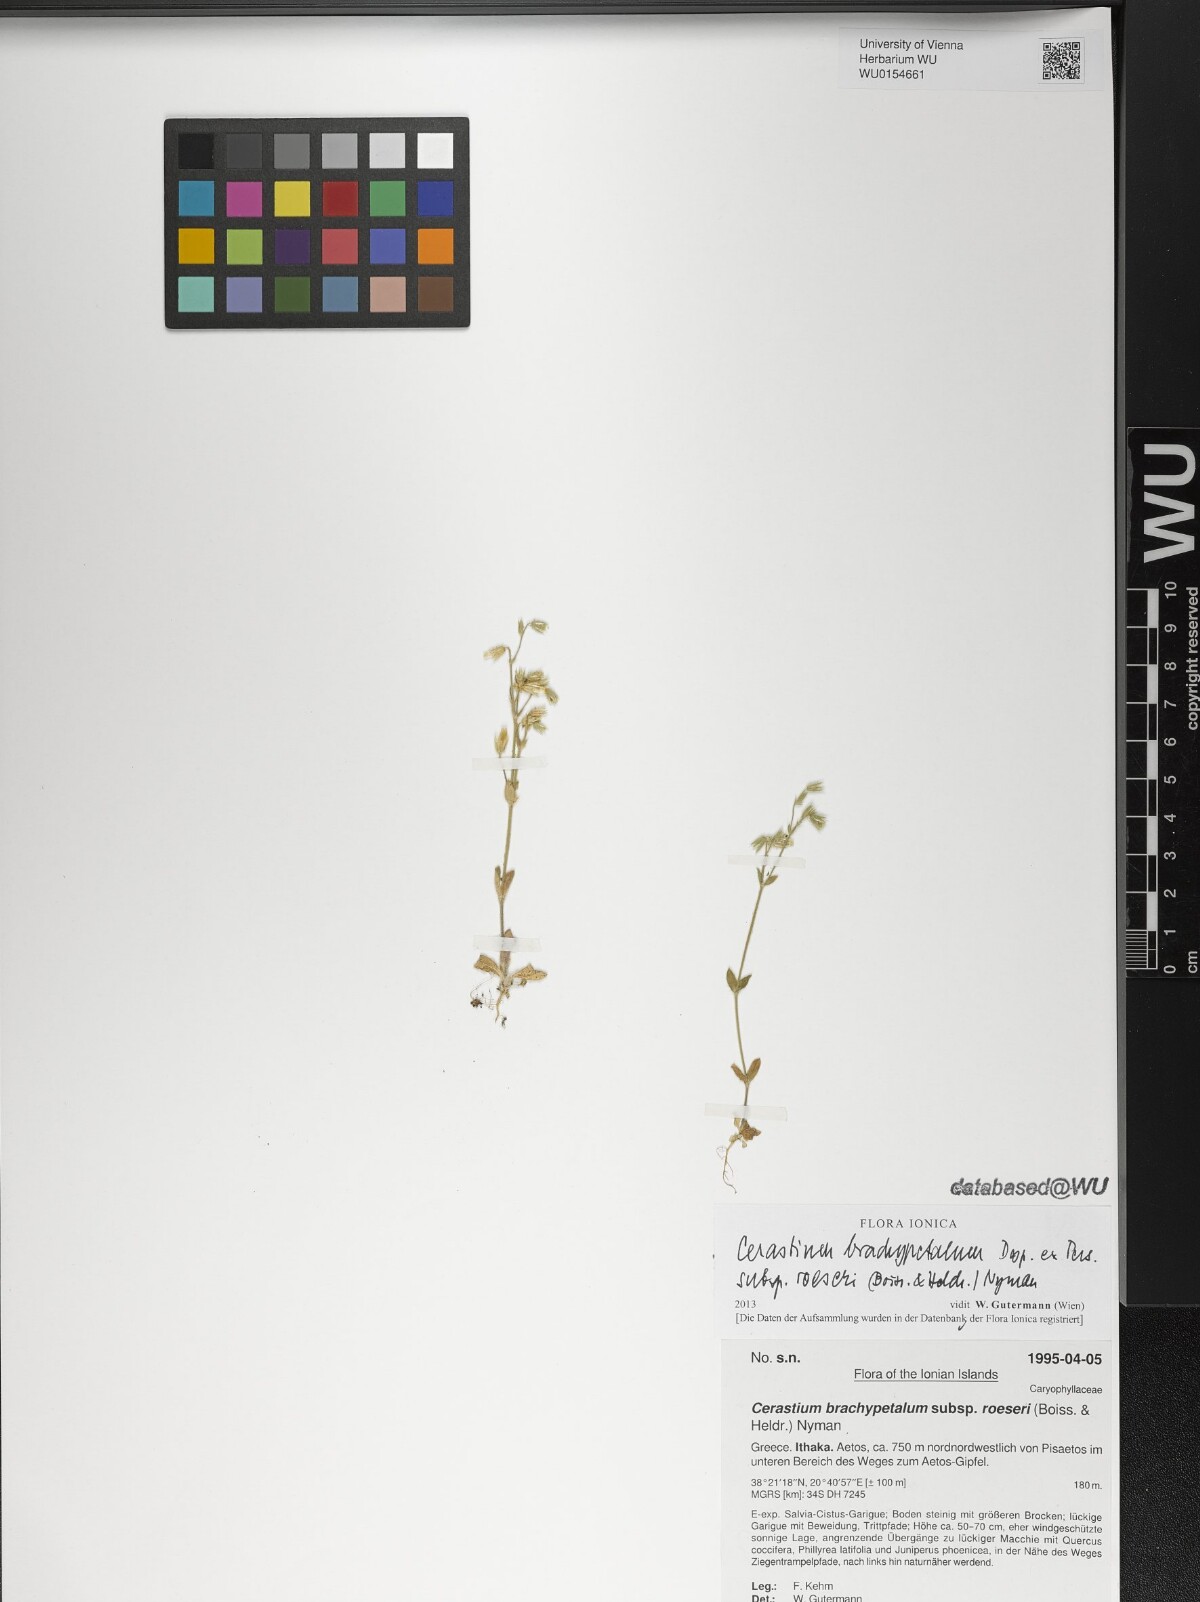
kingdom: Plantae
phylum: Tracheophyta
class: Magnoliopsida
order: Caryophyllales
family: Caryophyllaceae
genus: Cerastium
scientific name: Cerastium brachypetalum
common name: Grey mouse-ear
